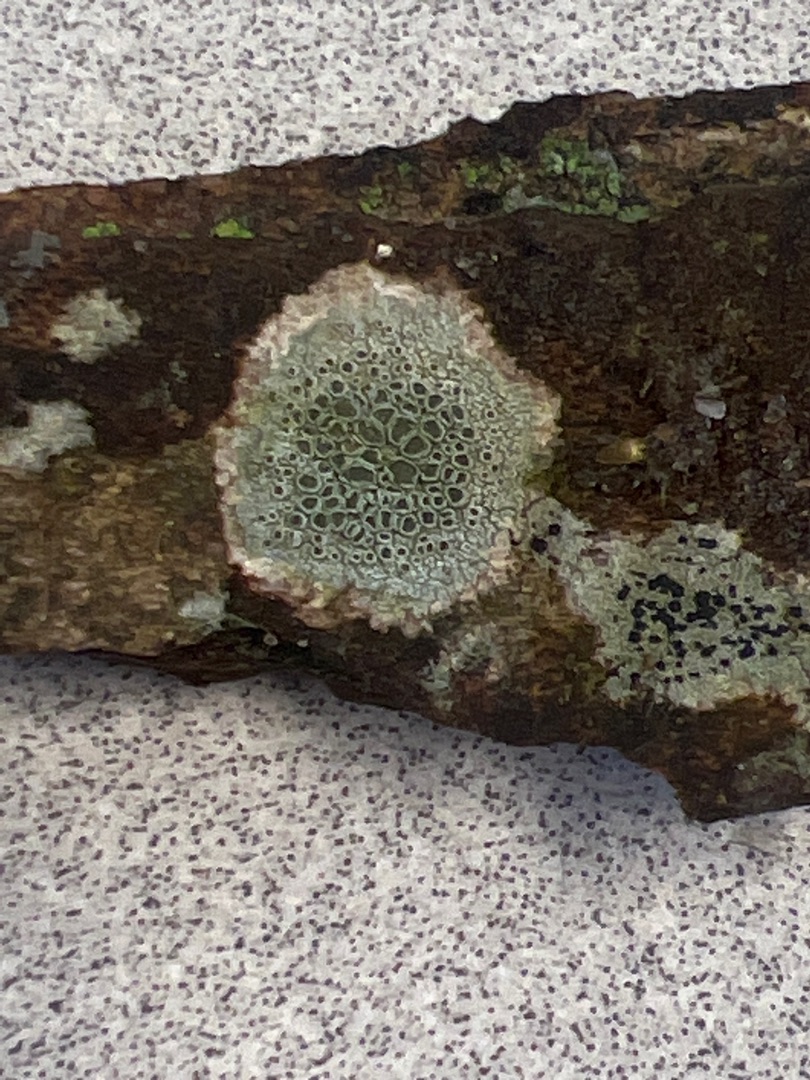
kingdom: Fungi
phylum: Ascomycota
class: Lecanoromycetes
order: Lecanorales
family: Lecanoraceae
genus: Lecidella
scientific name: Lecidella elaeochroma
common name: Grågrøn skivelav
